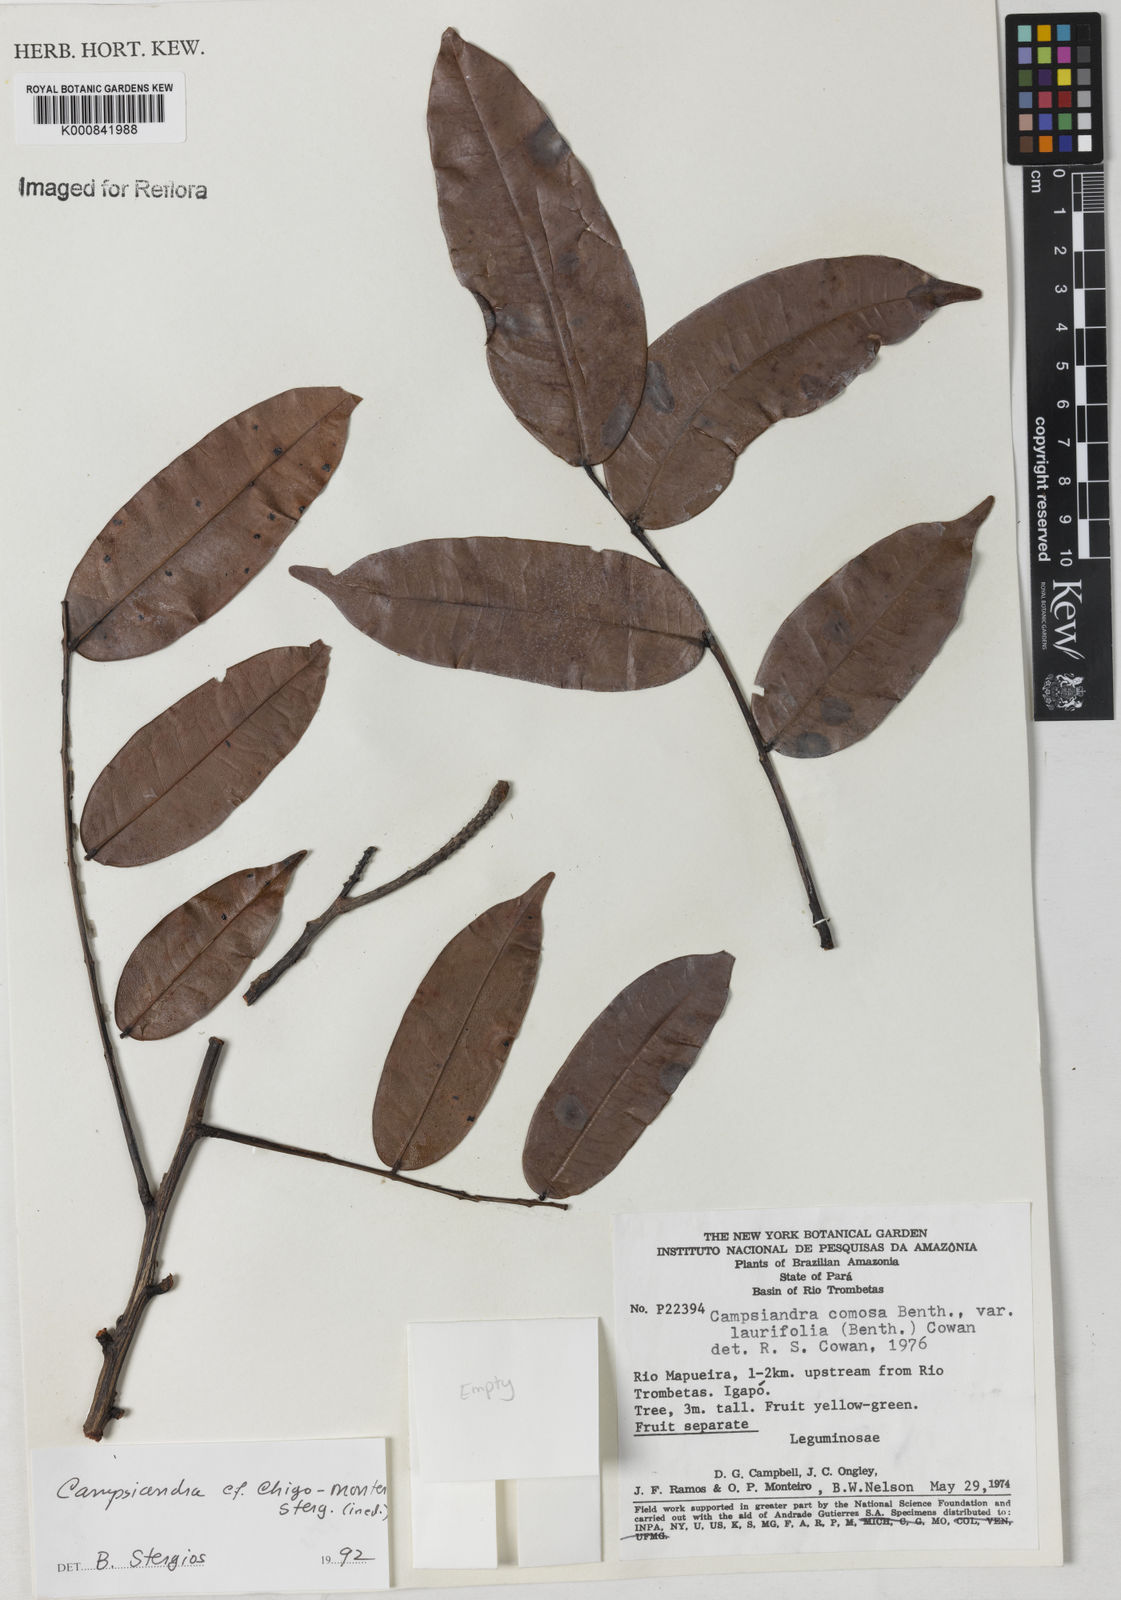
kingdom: Plantae
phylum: Tracheophyta
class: Magnoliopsida
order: Fabales
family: Fabaceae
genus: Campsiandra
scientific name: Campsiandra chigo-montero
